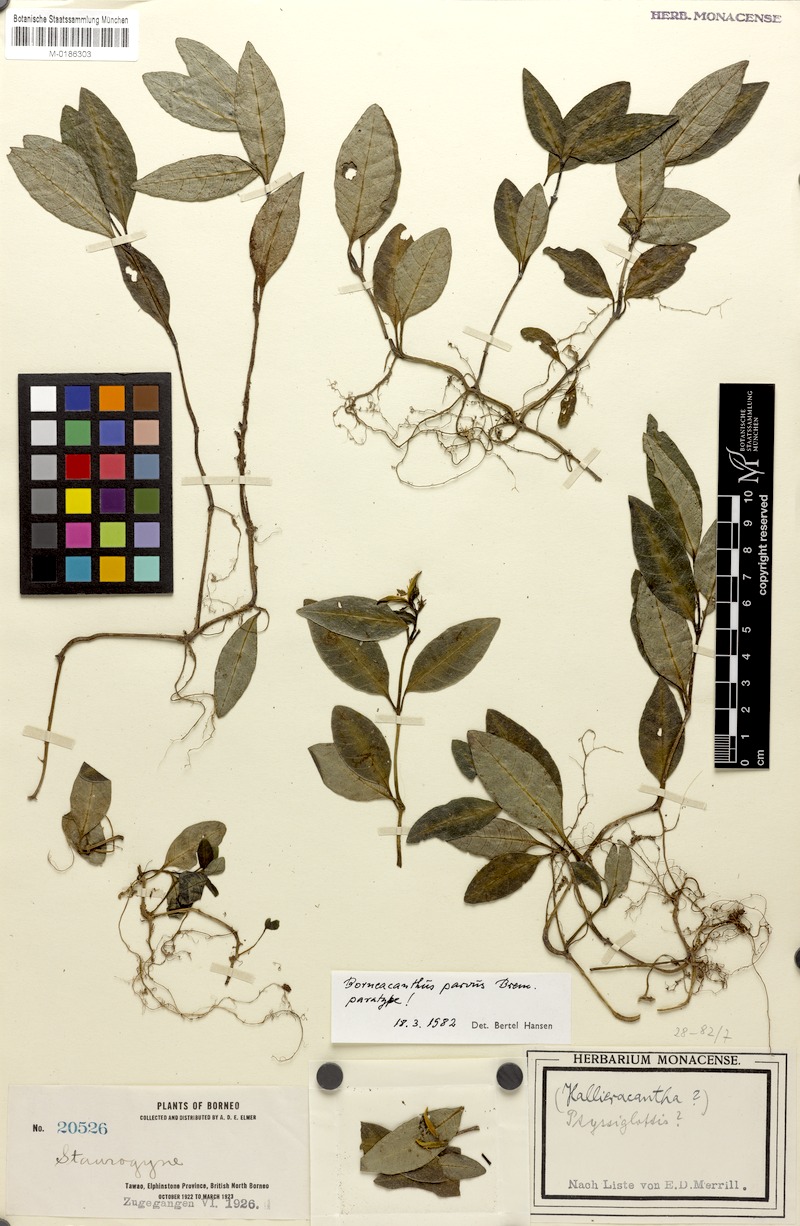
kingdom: Plantae
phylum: Tracheophyta
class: Magnoliopsida
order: Lamiales
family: Acanthaceae
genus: Borneacanthus
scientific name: Borneacanthus parvus
